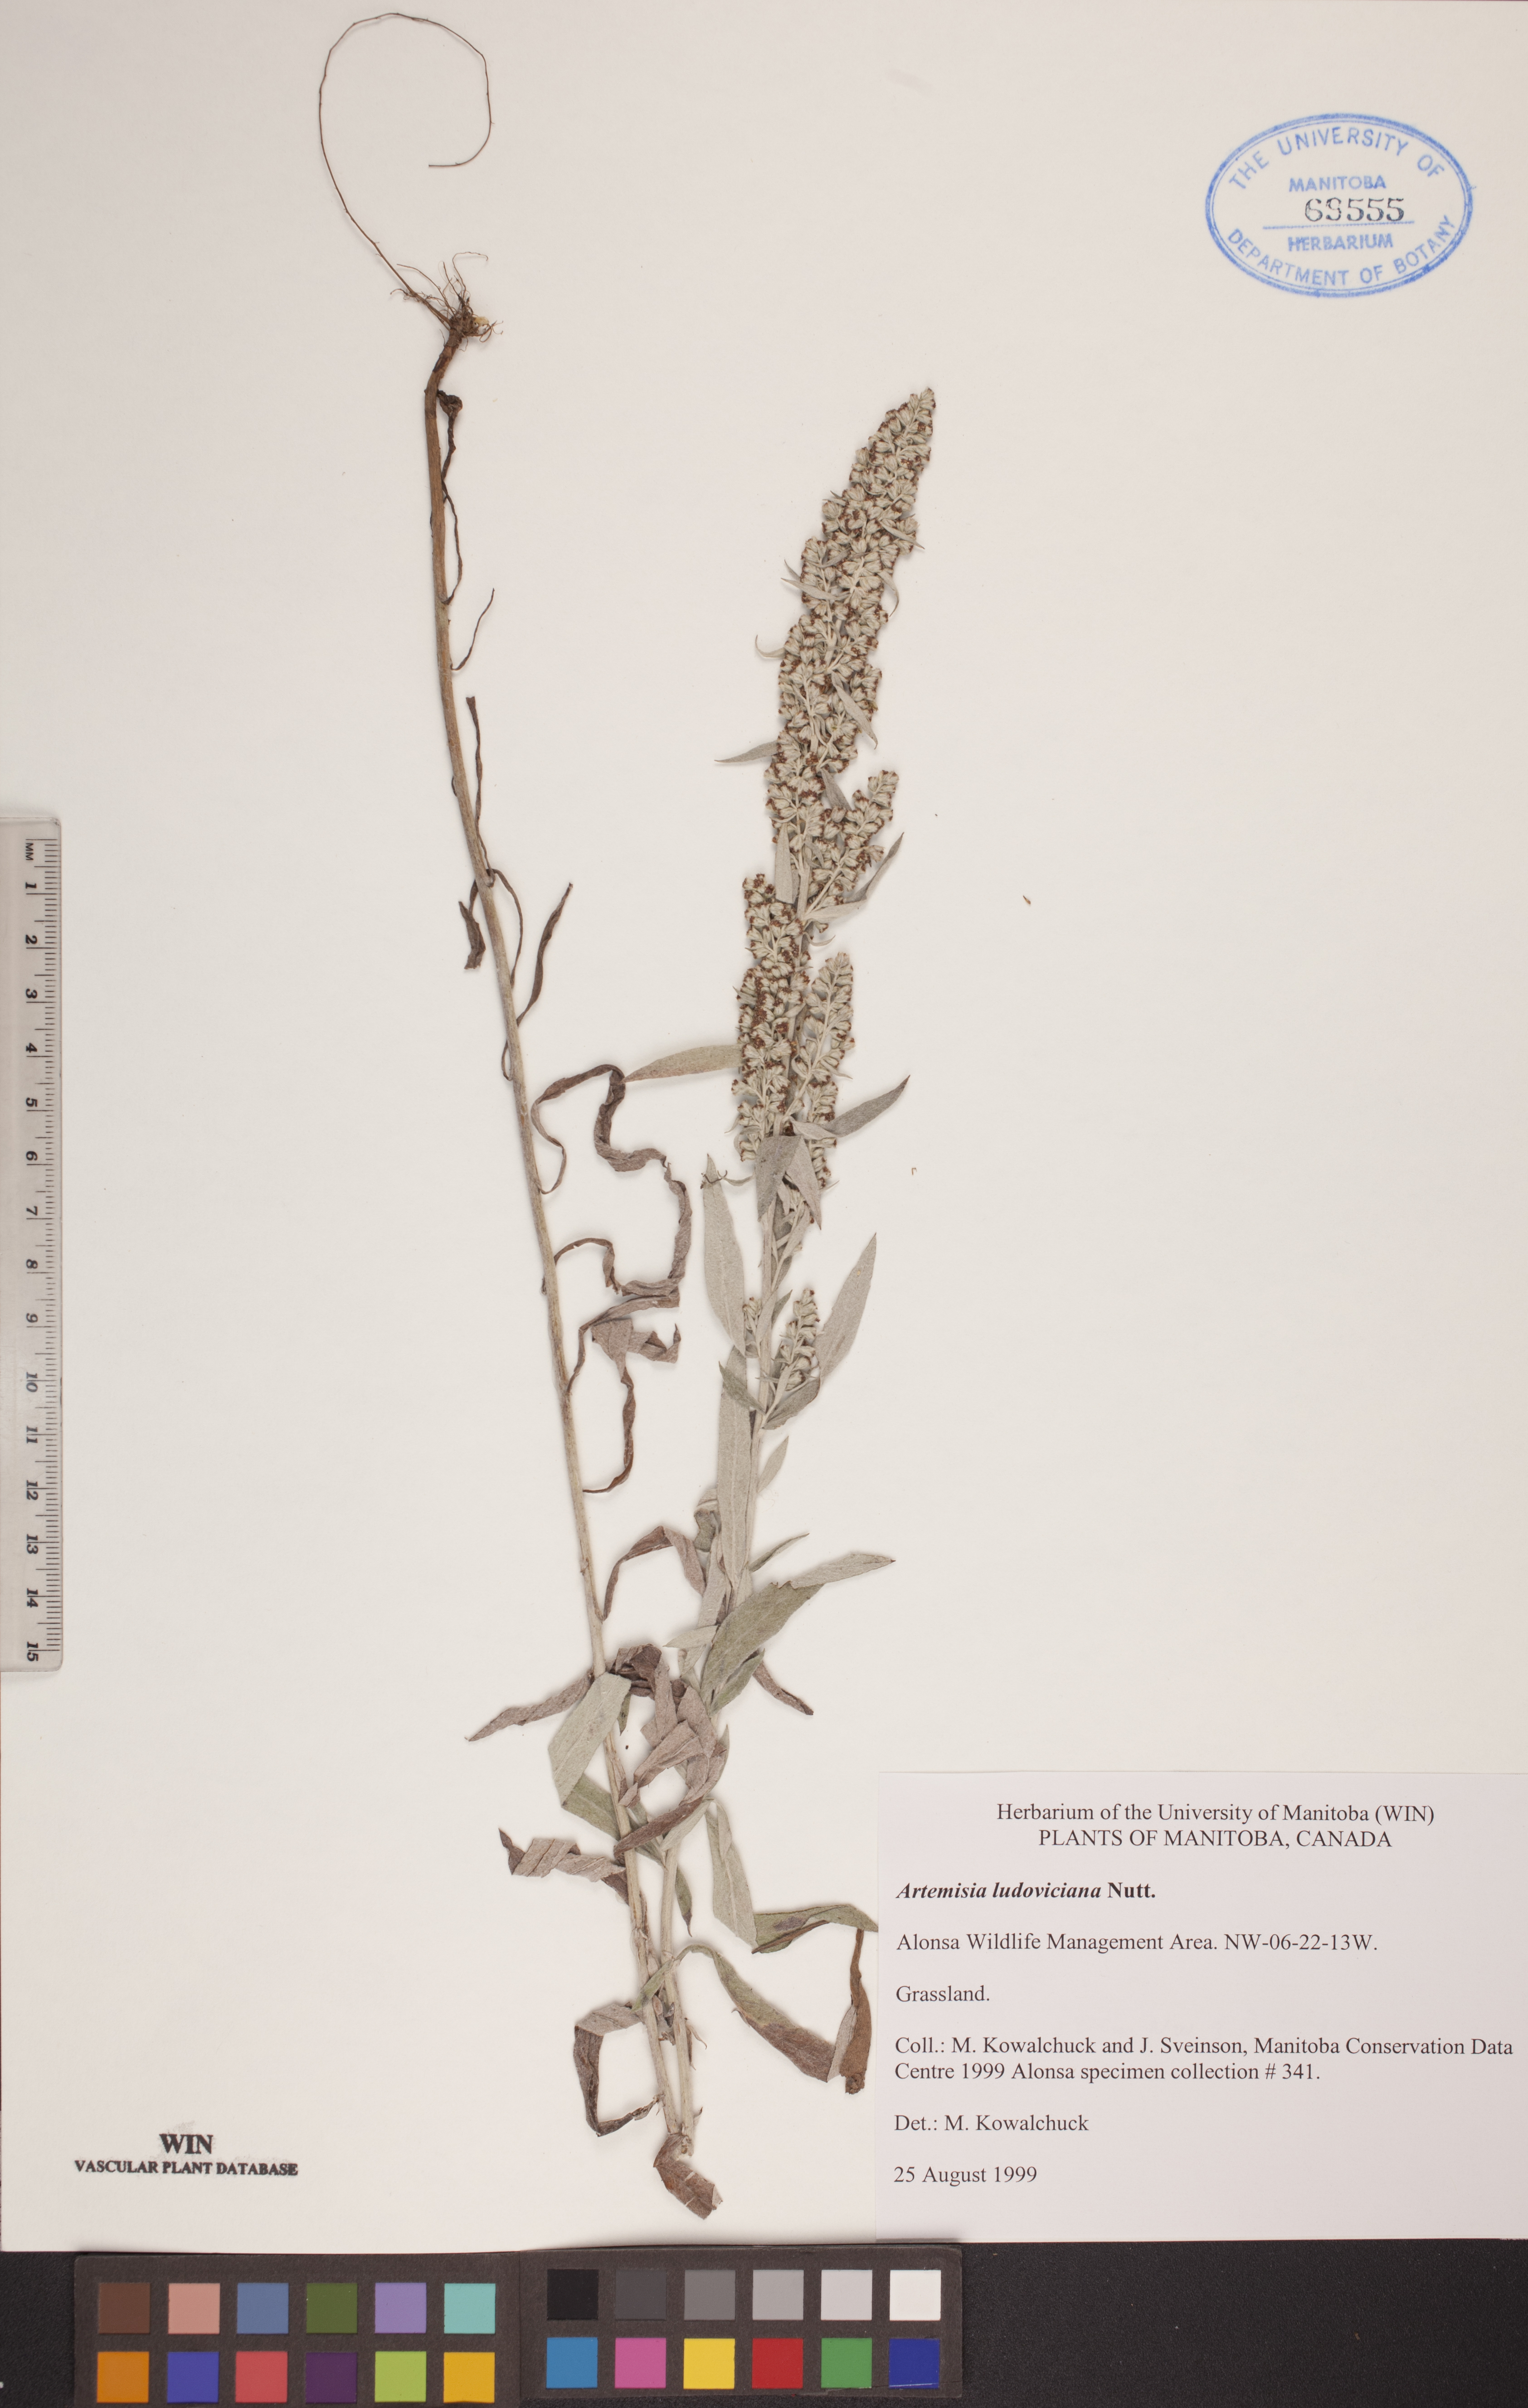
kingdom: Plantae
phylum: Tracheophyta
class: Magnoliopsida
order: Asterales
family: Asteraceae
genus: Artemisia
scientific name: Artemisia ludoviciana
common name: Western mugwort
